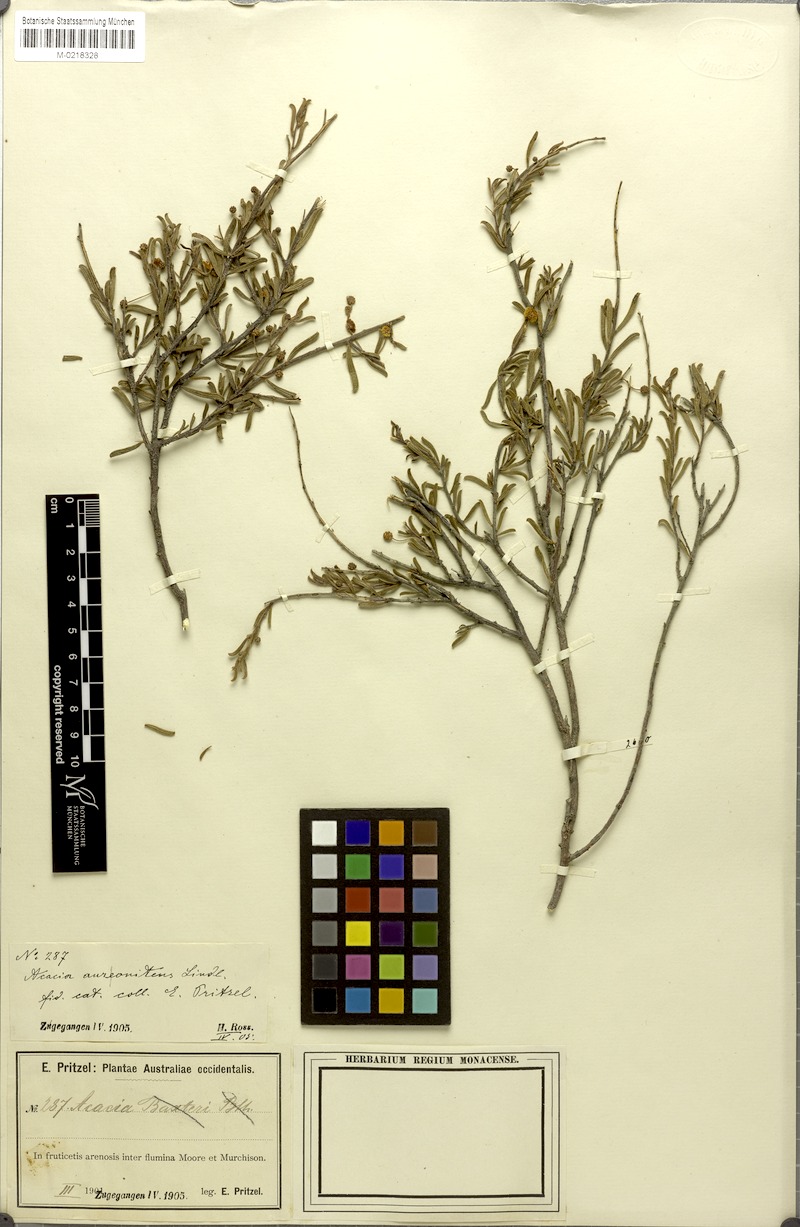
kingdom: Plantae
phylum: Tracheophyta
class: Magnoliopsida
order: Fabales
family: Fabaceae
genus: Acacia
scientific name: Acacia auronitens
